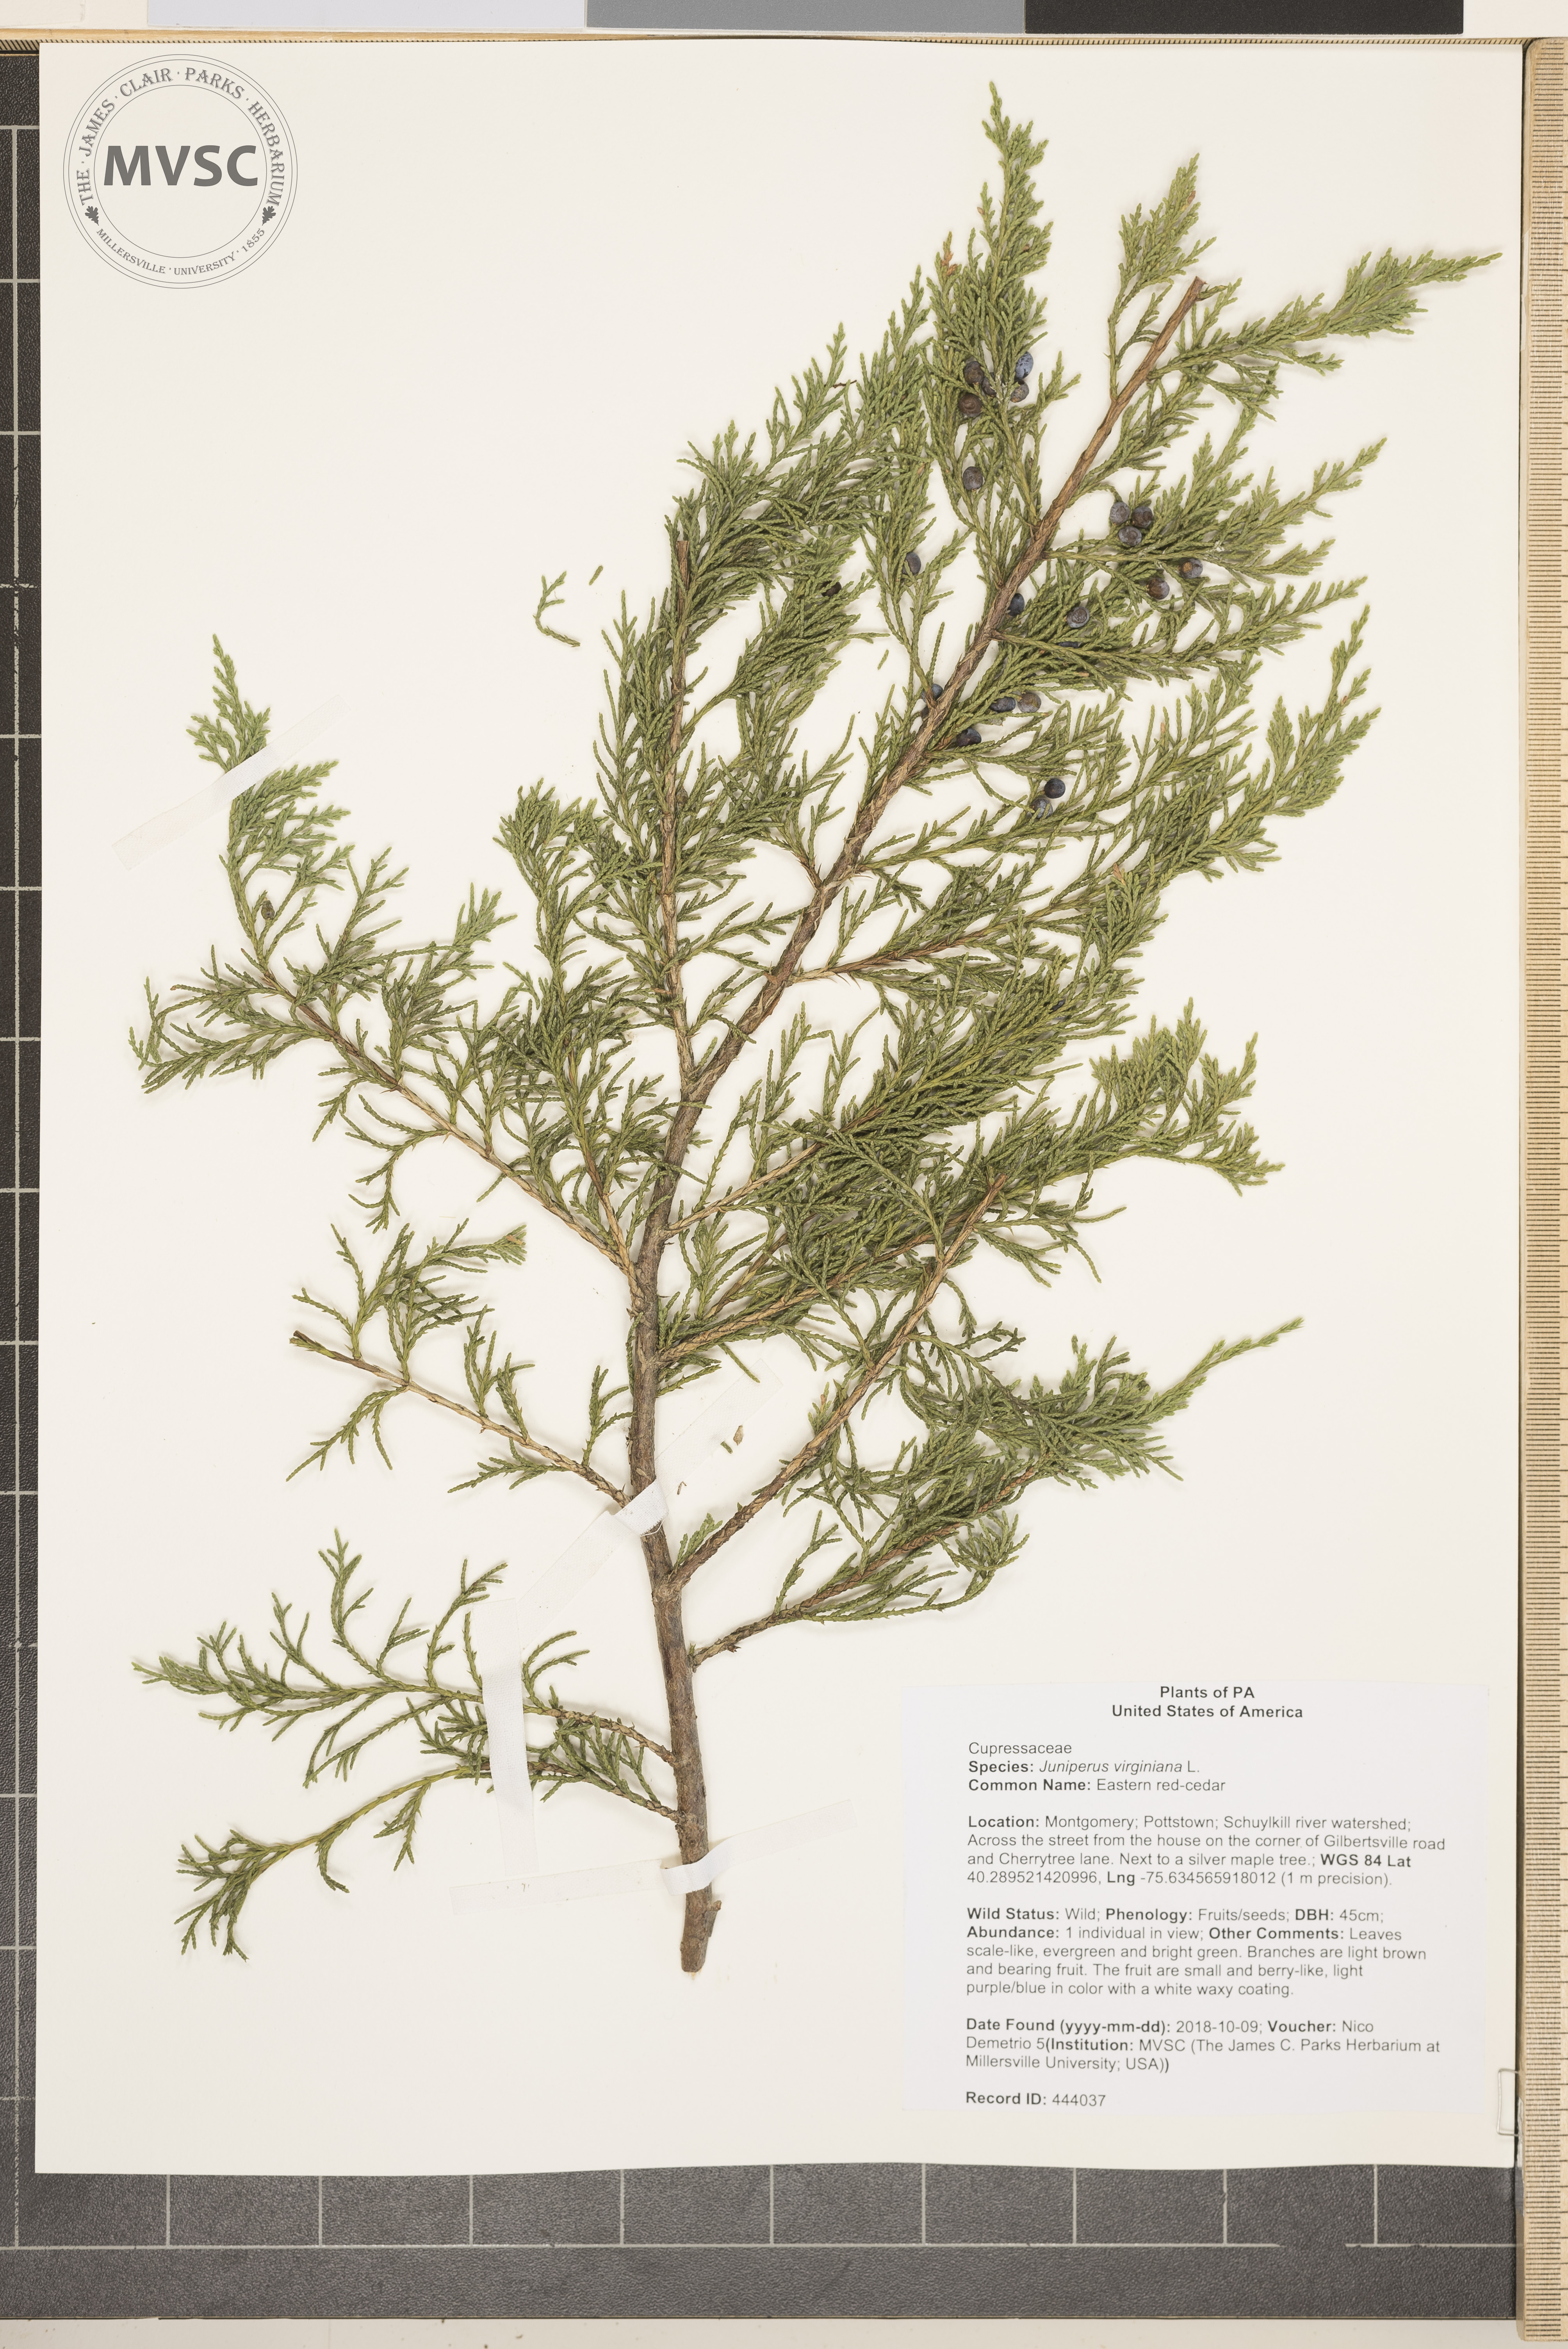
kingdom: Plantae
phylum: Tracheophyta
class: Pinopsida
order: Pinales
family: Cupressaceae
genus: Juniperus
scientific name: Juniperus virginiana
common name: Eastern red-cedar
